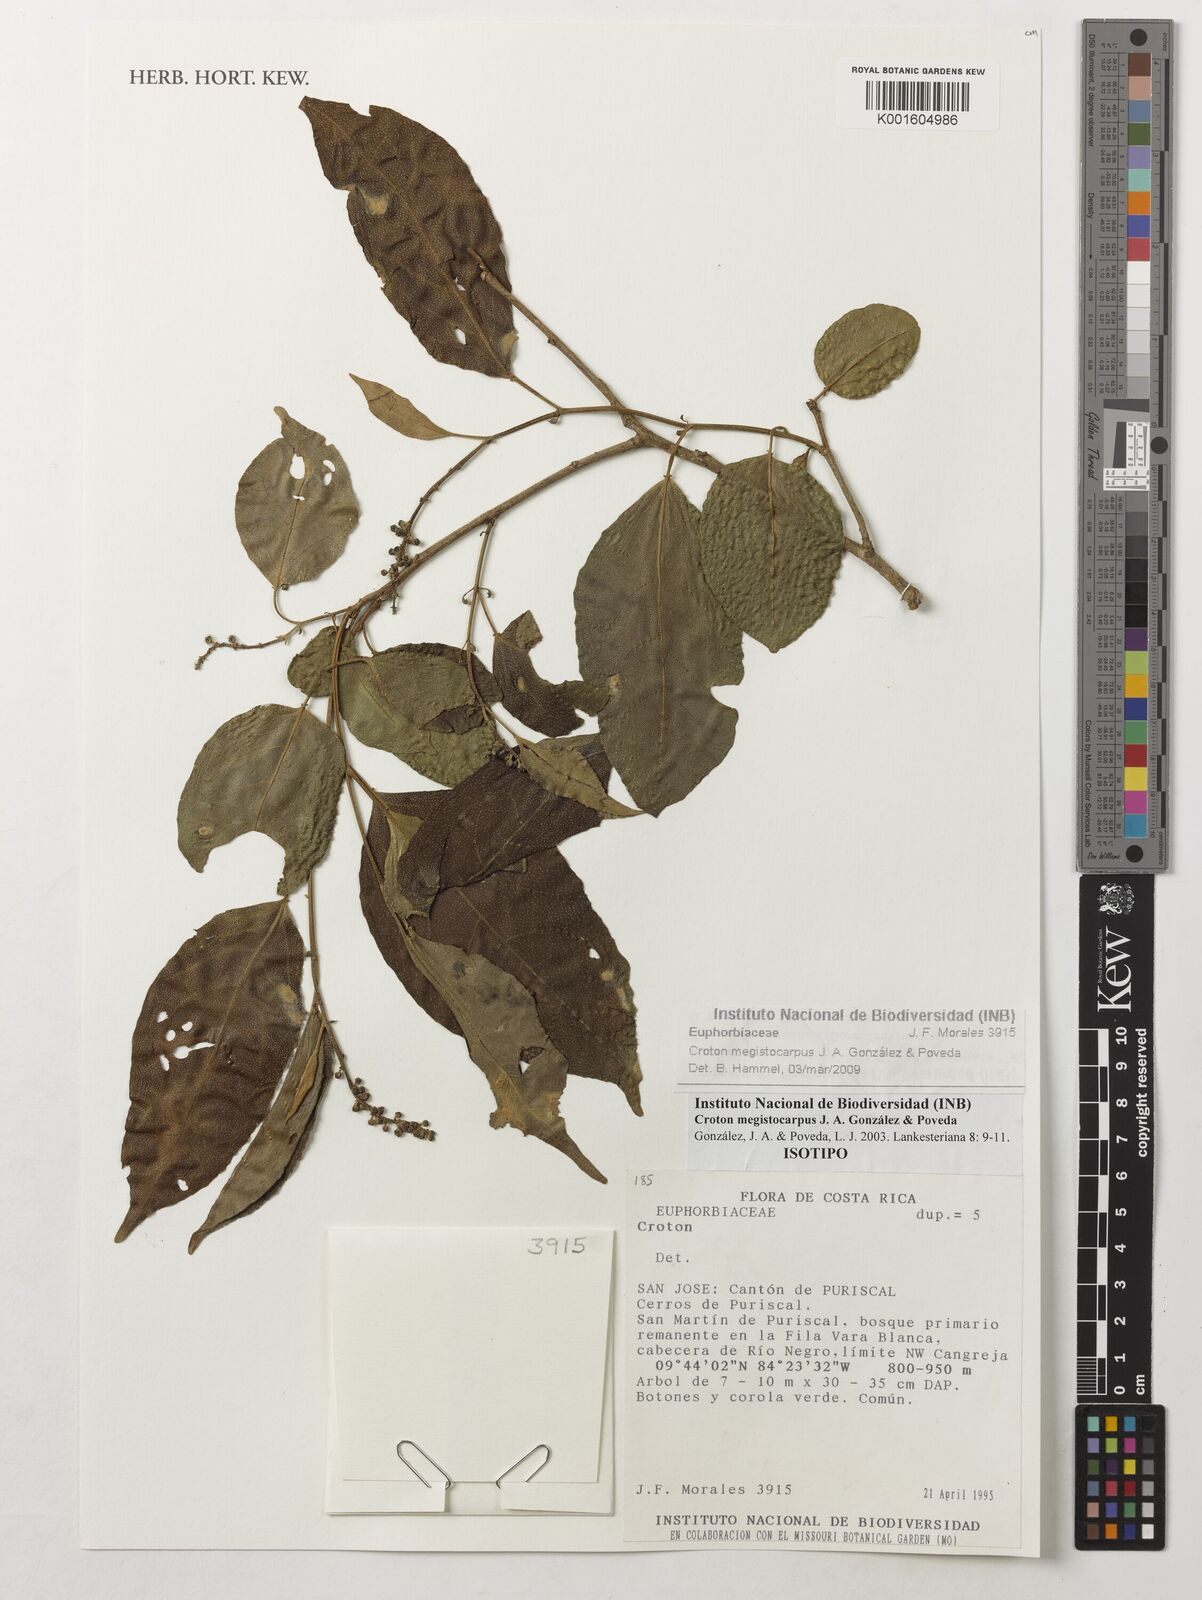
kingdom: Plantae
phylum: Tracheophyta
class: Magnoliopsida
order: Malpighiales
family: Euphorbiaceae
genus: Croton
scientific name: Croton megistocarpus
